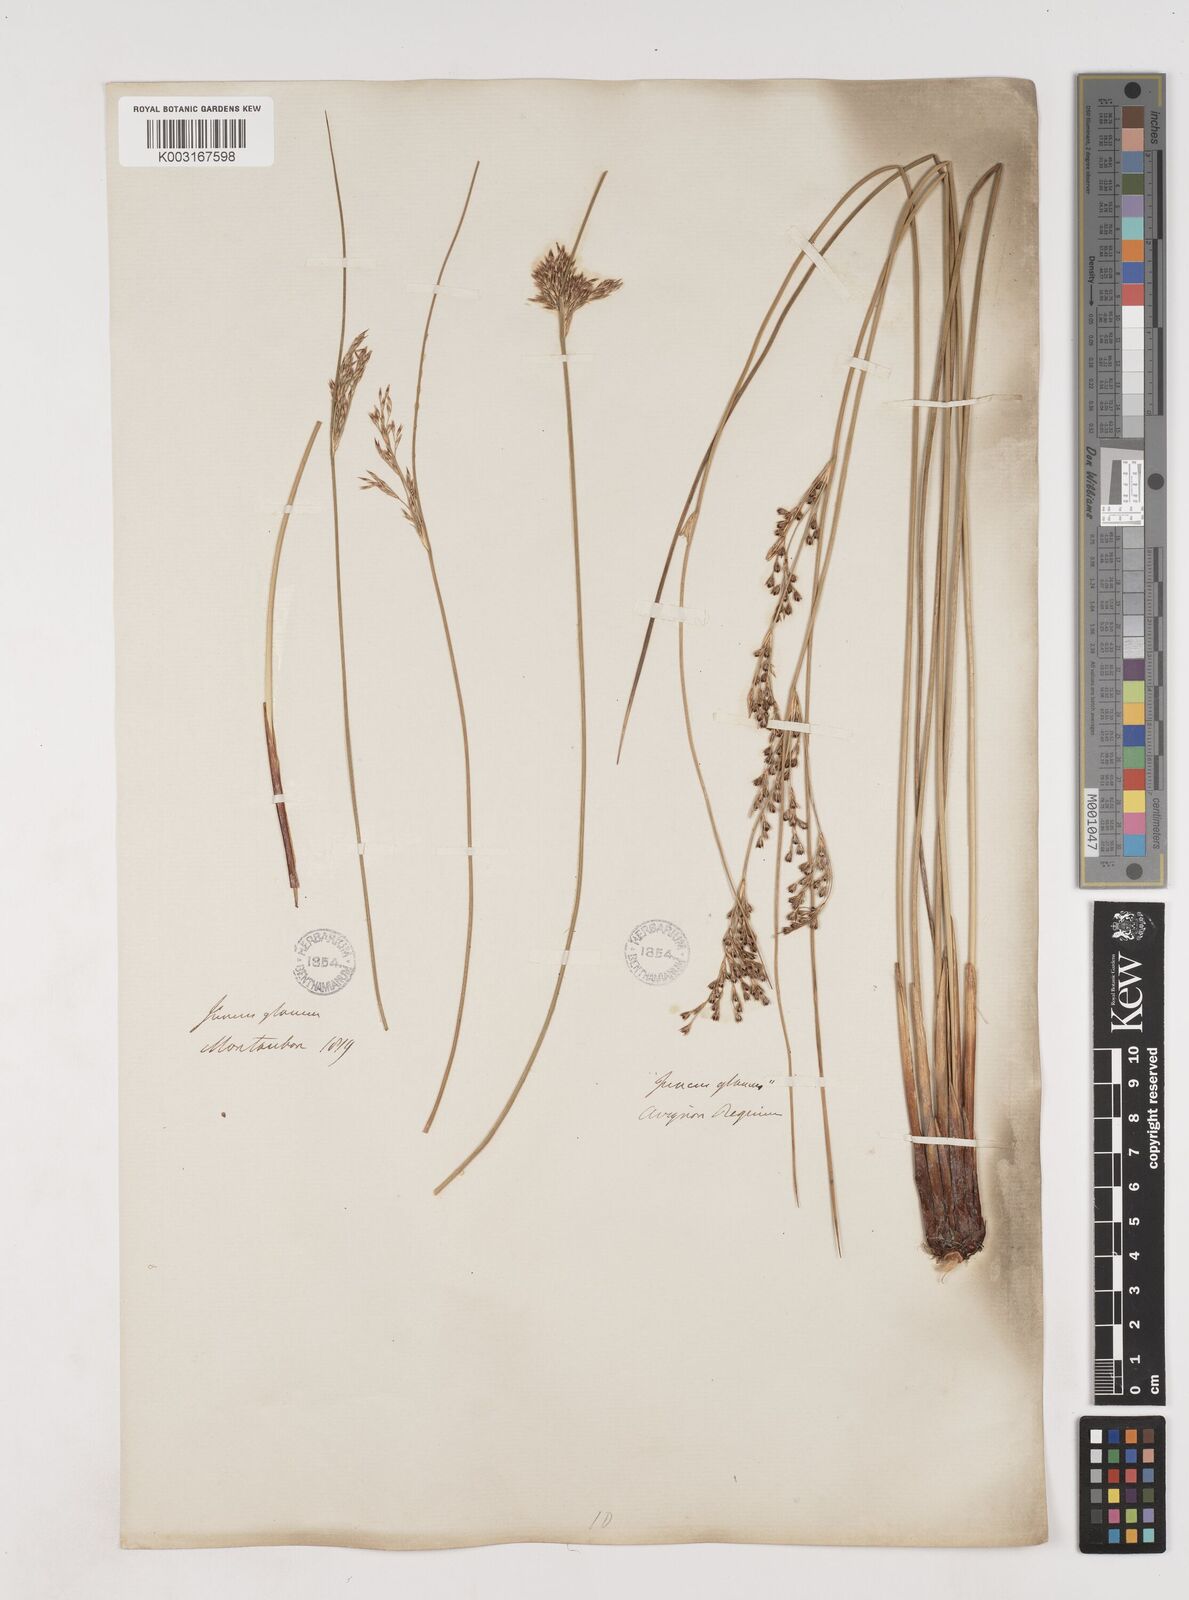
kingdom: Plantae
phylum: Tracheophyta
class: Liliopsida
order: Poales
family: Juncaceae
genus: Juncus
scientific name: Juncus inflexus
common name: Hard rush
